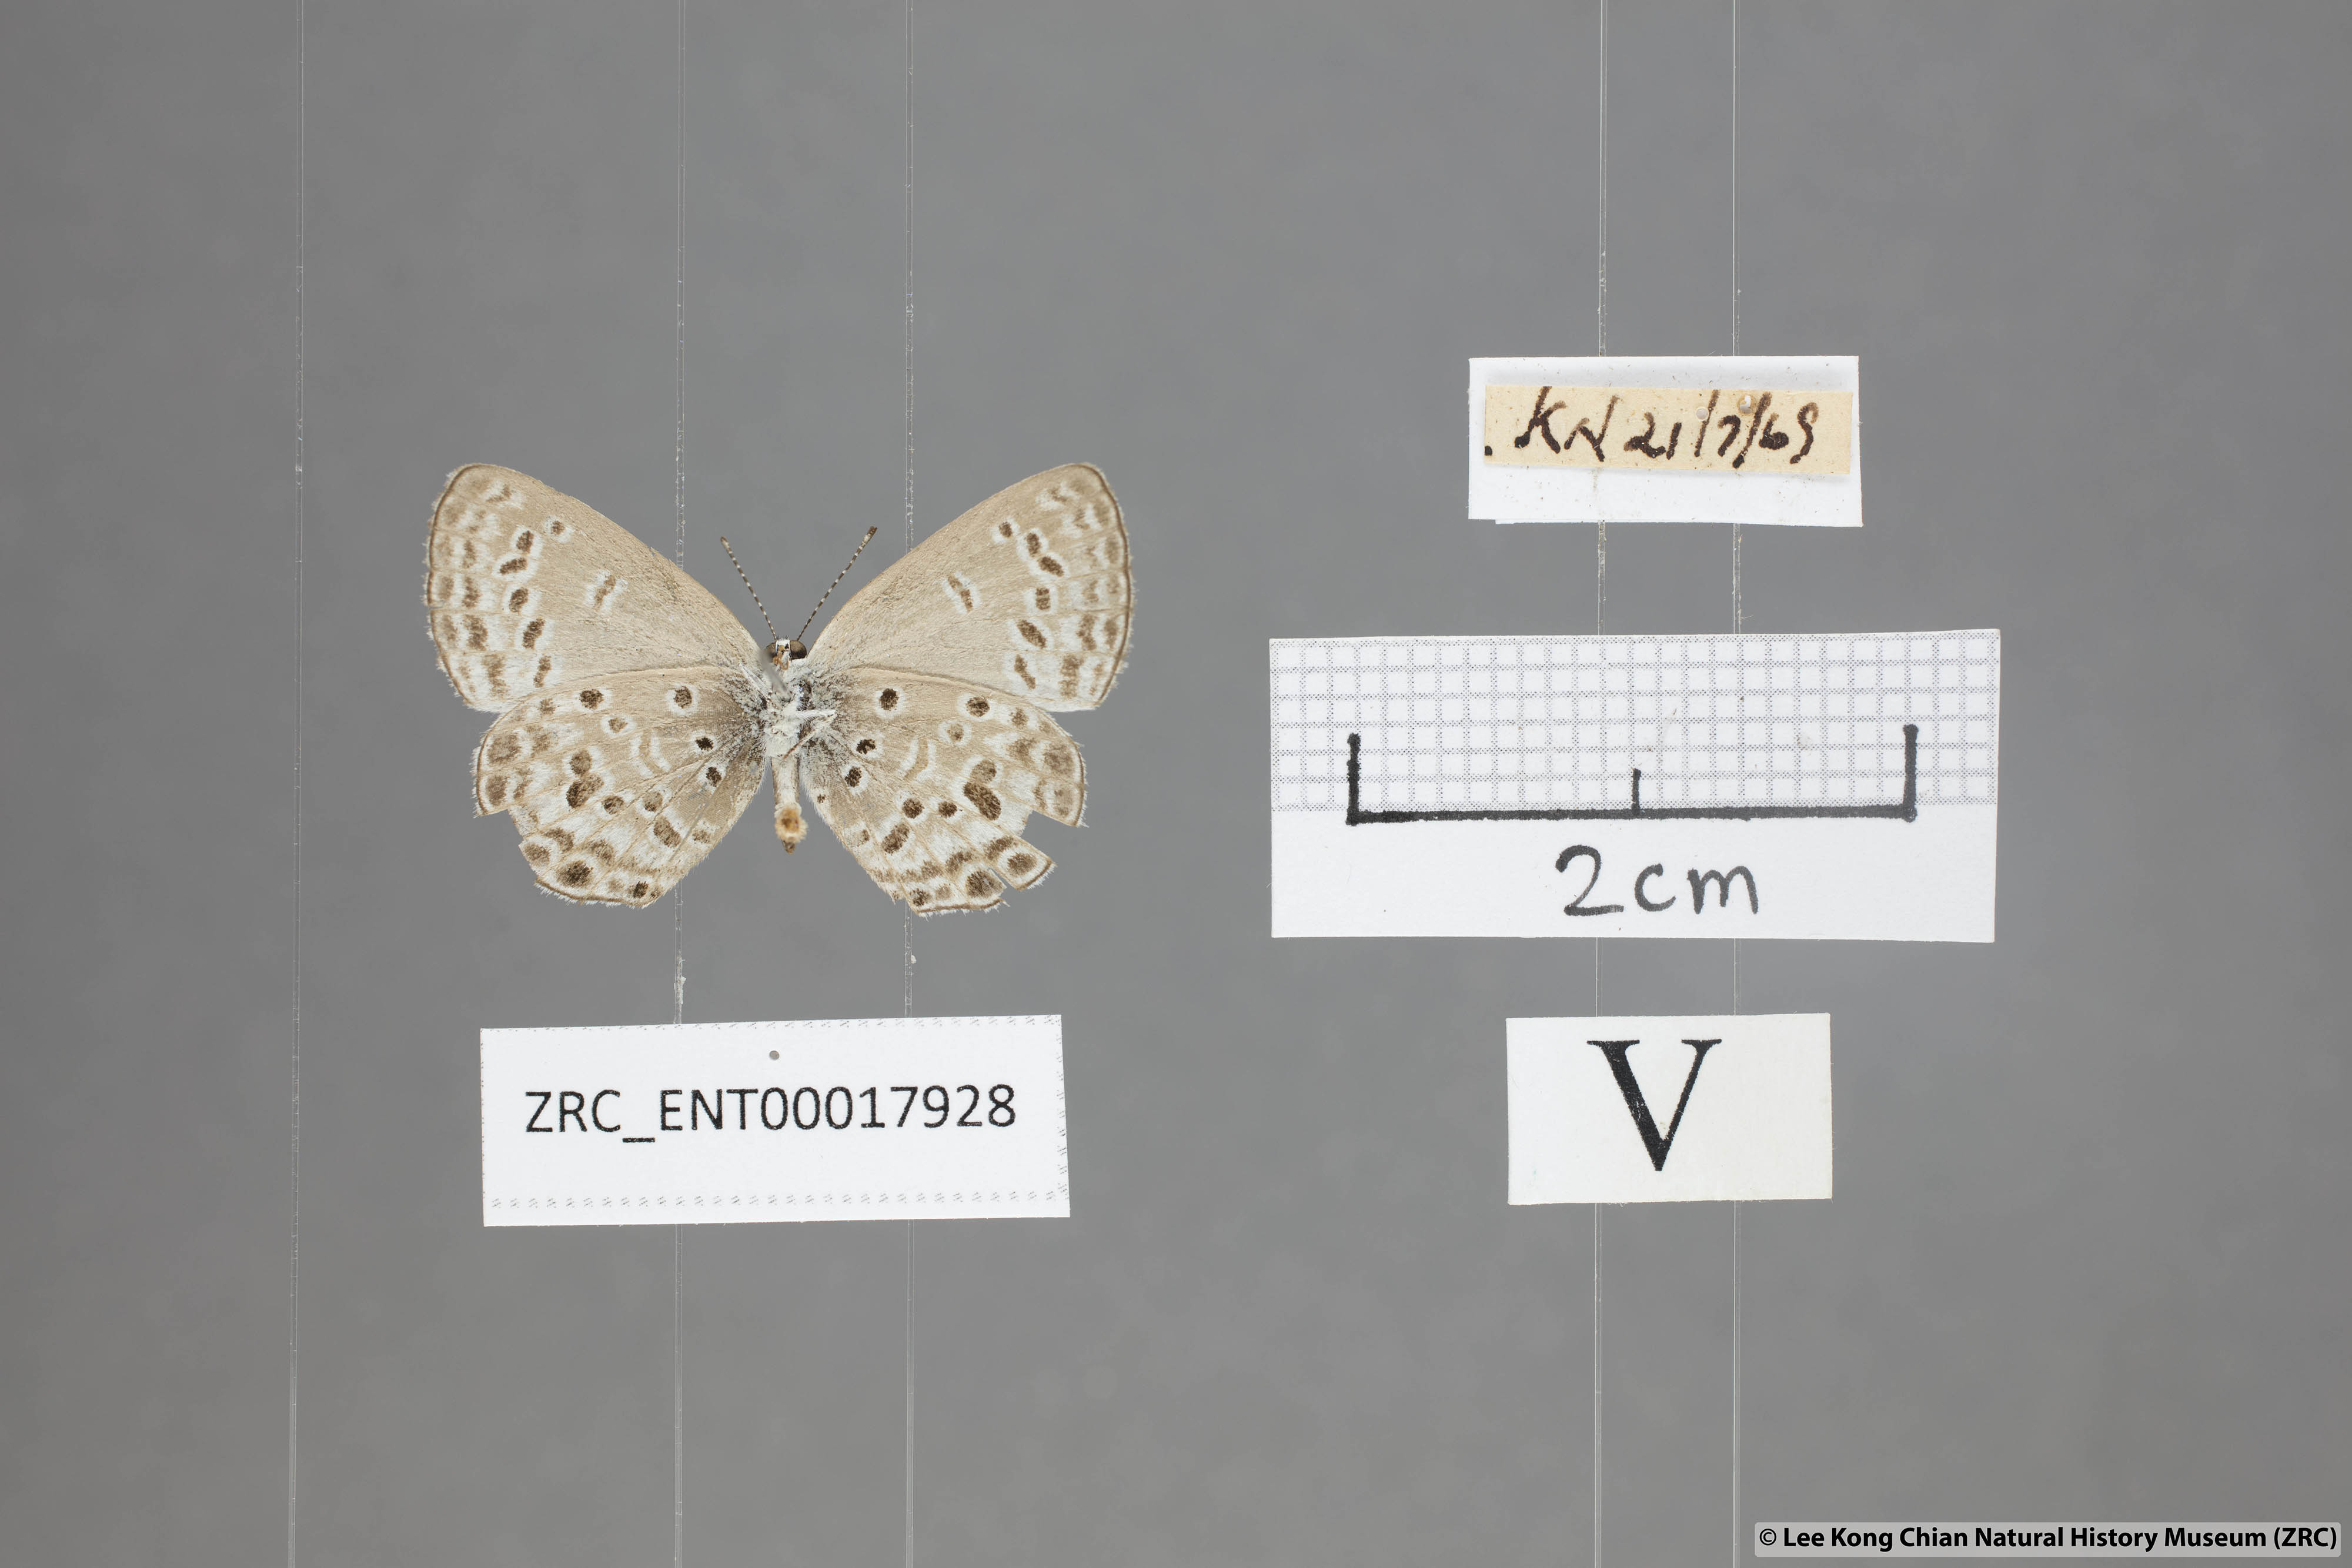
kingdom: Animalia
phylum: Arthropoda
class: Insecta
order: Lepidoptera
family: Lycaenidae
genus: Chilades
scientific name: Chilades laius
